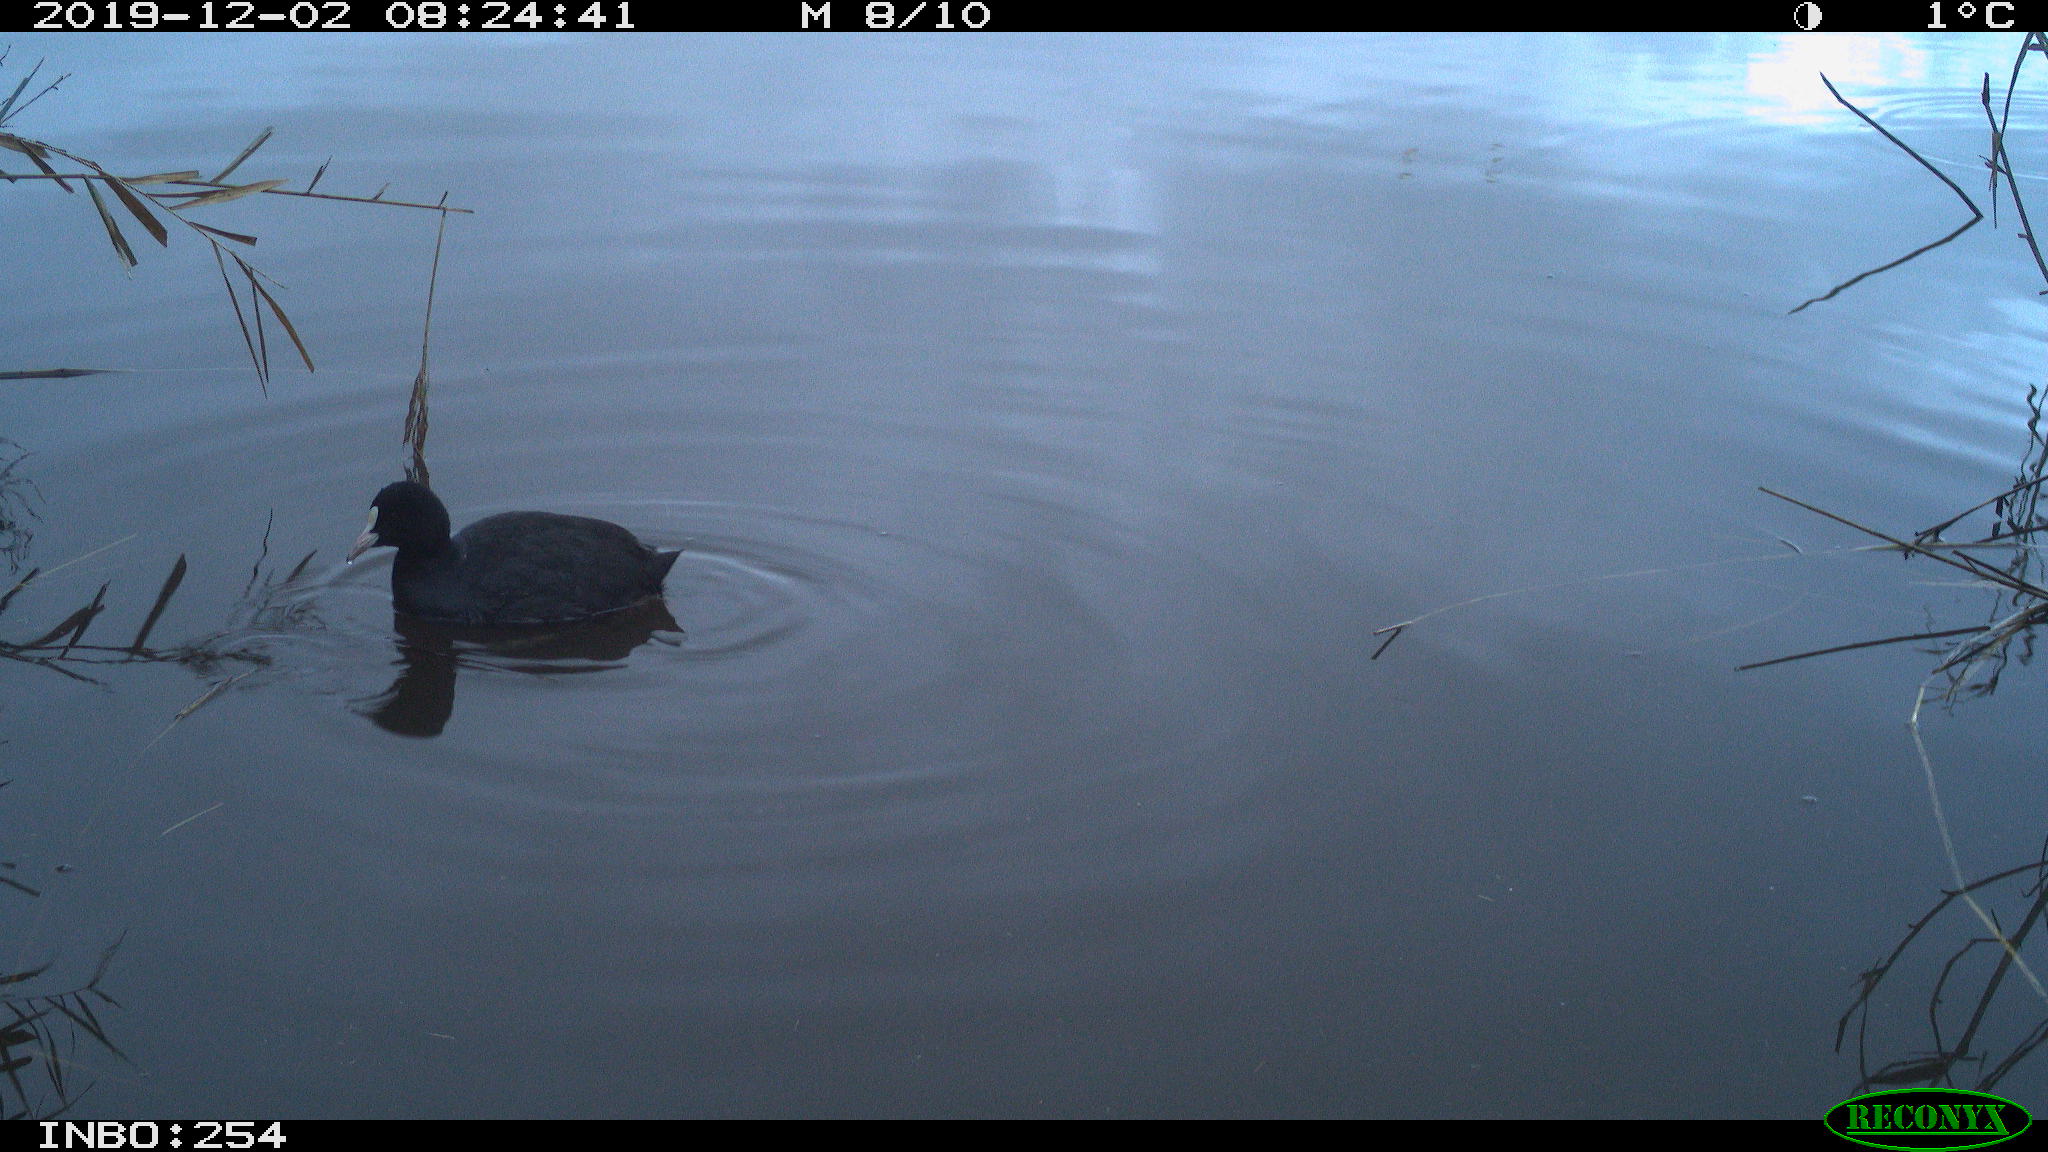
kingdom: Animalia
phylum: Chordata
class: Aves
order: Gruiformes
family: Rallidae
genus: Fulica
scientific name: Fulica atra
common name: Eurasian coot
